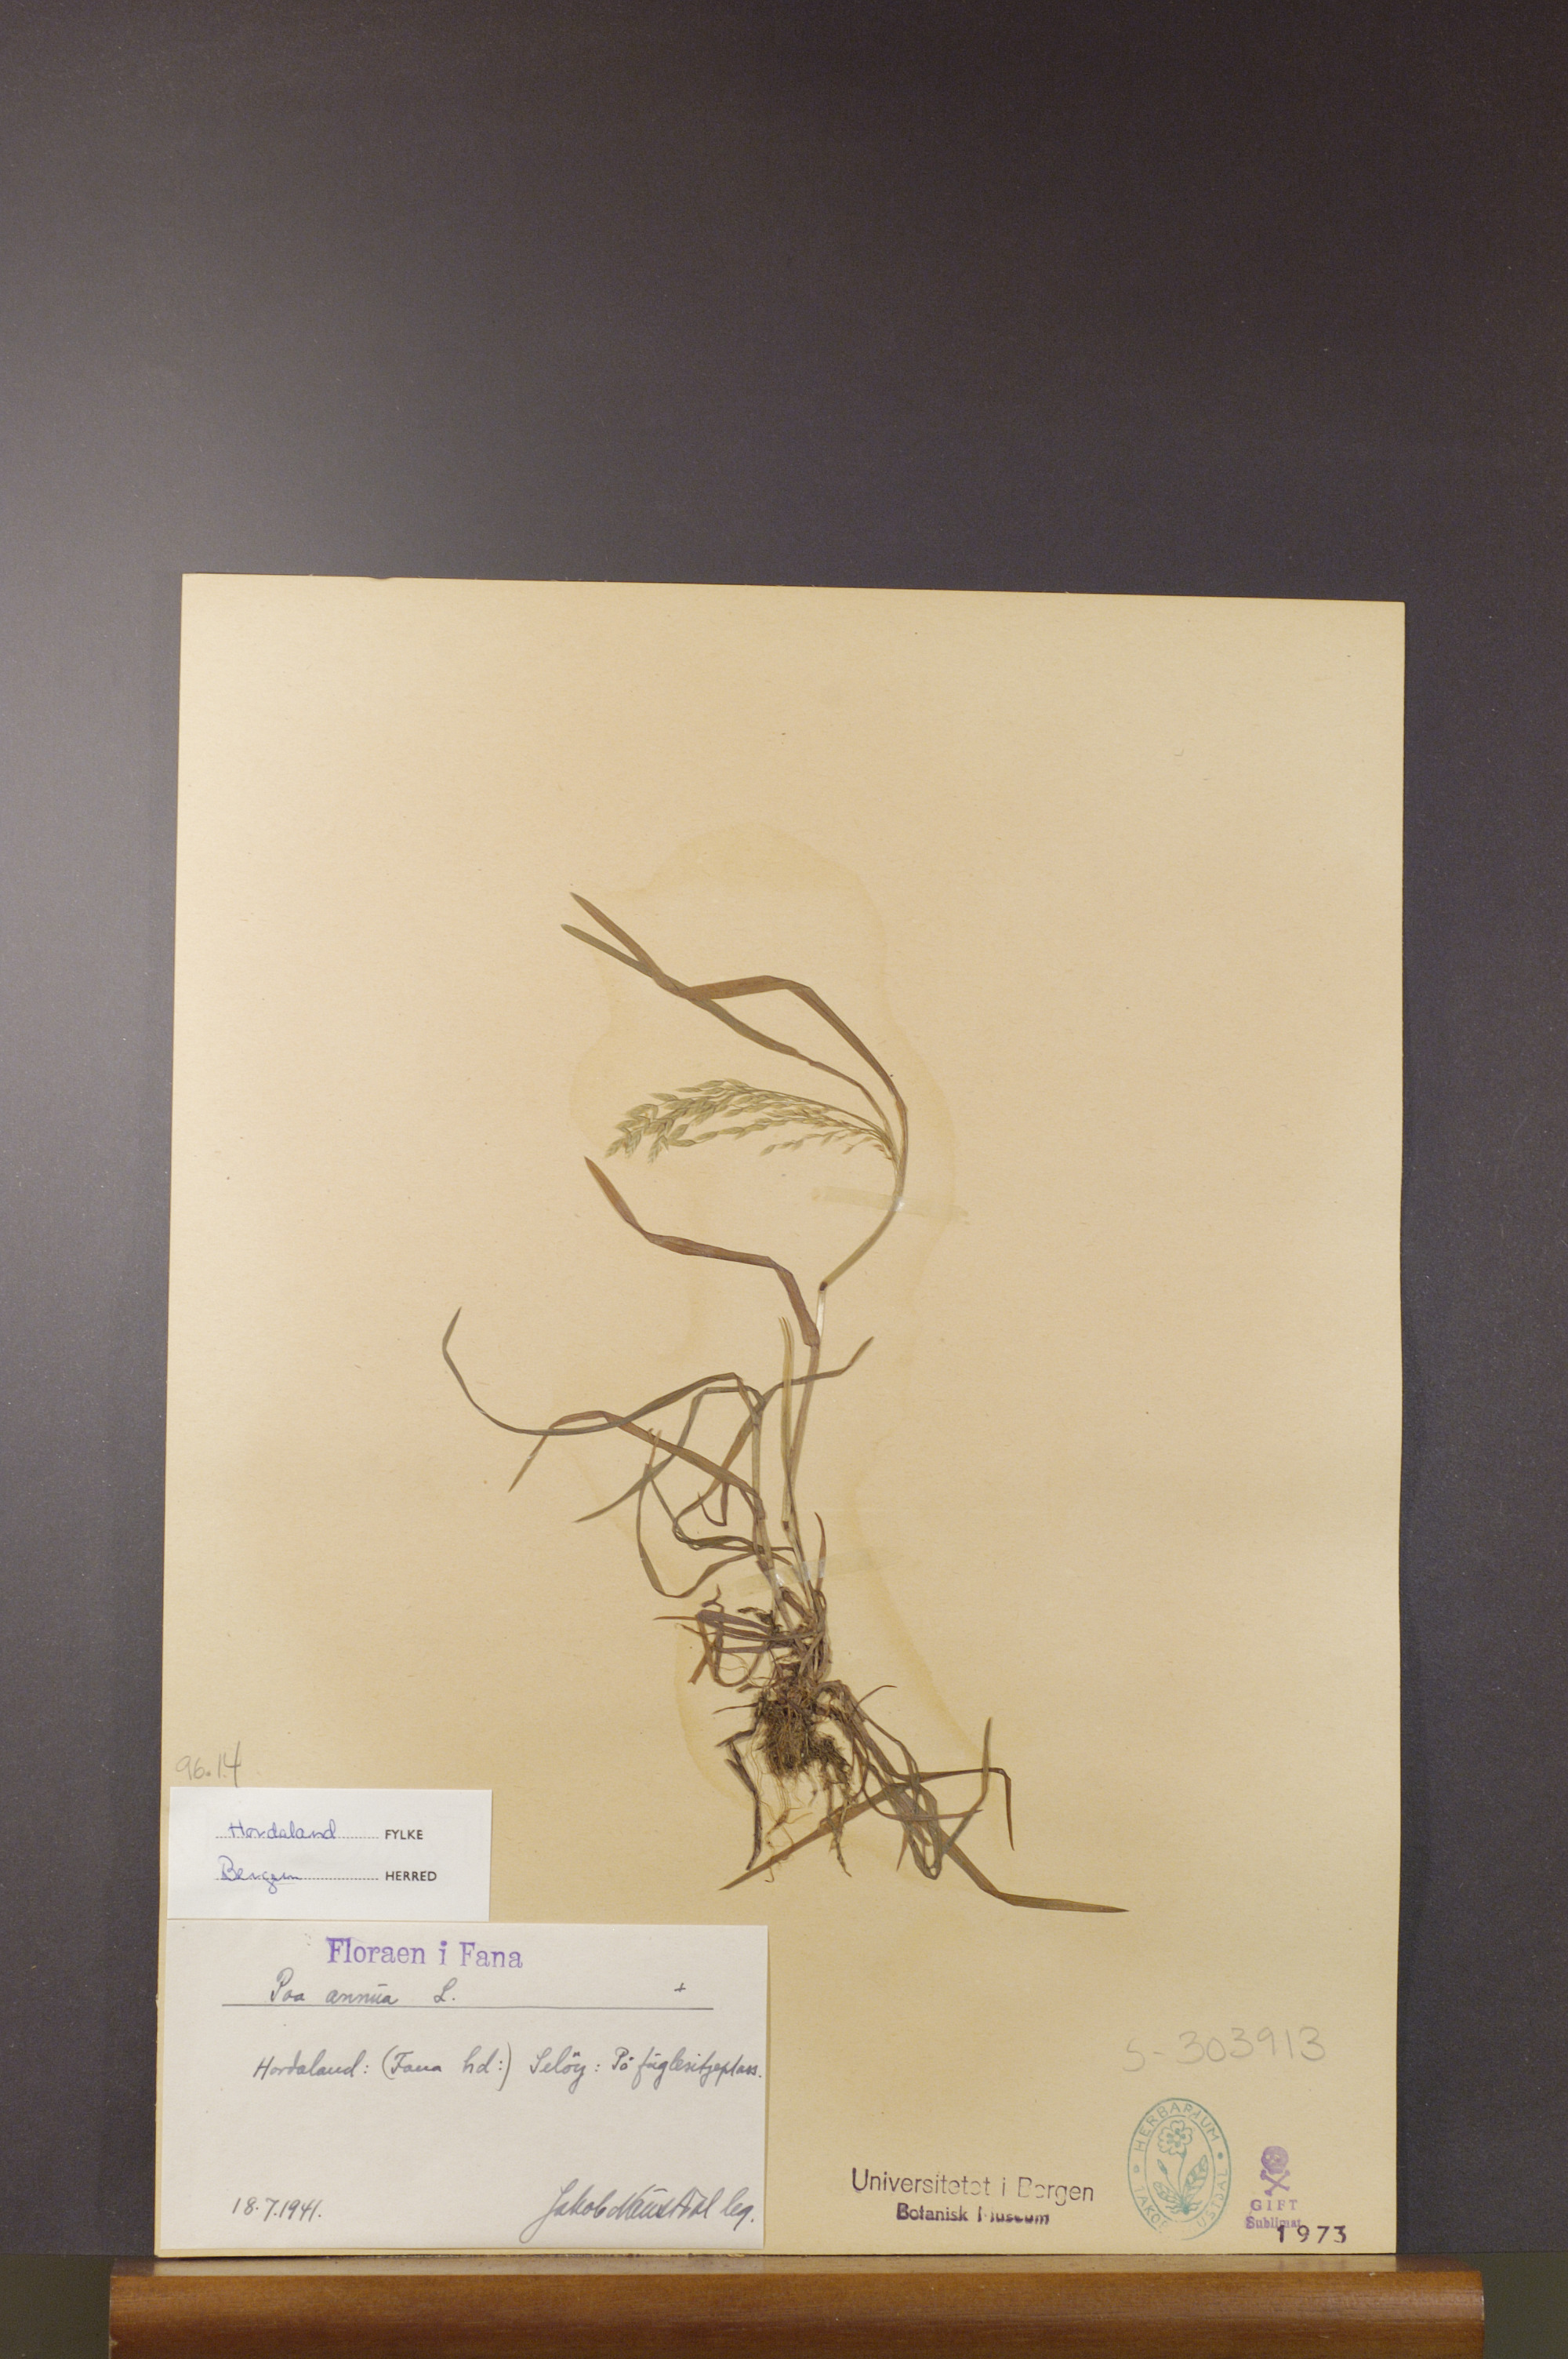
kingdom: Plantae
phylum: Tracheophyta
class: Liliopsida
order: Poales
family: Poaceae
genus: Poa
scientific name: Poa annua
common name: Annual bluegrass
